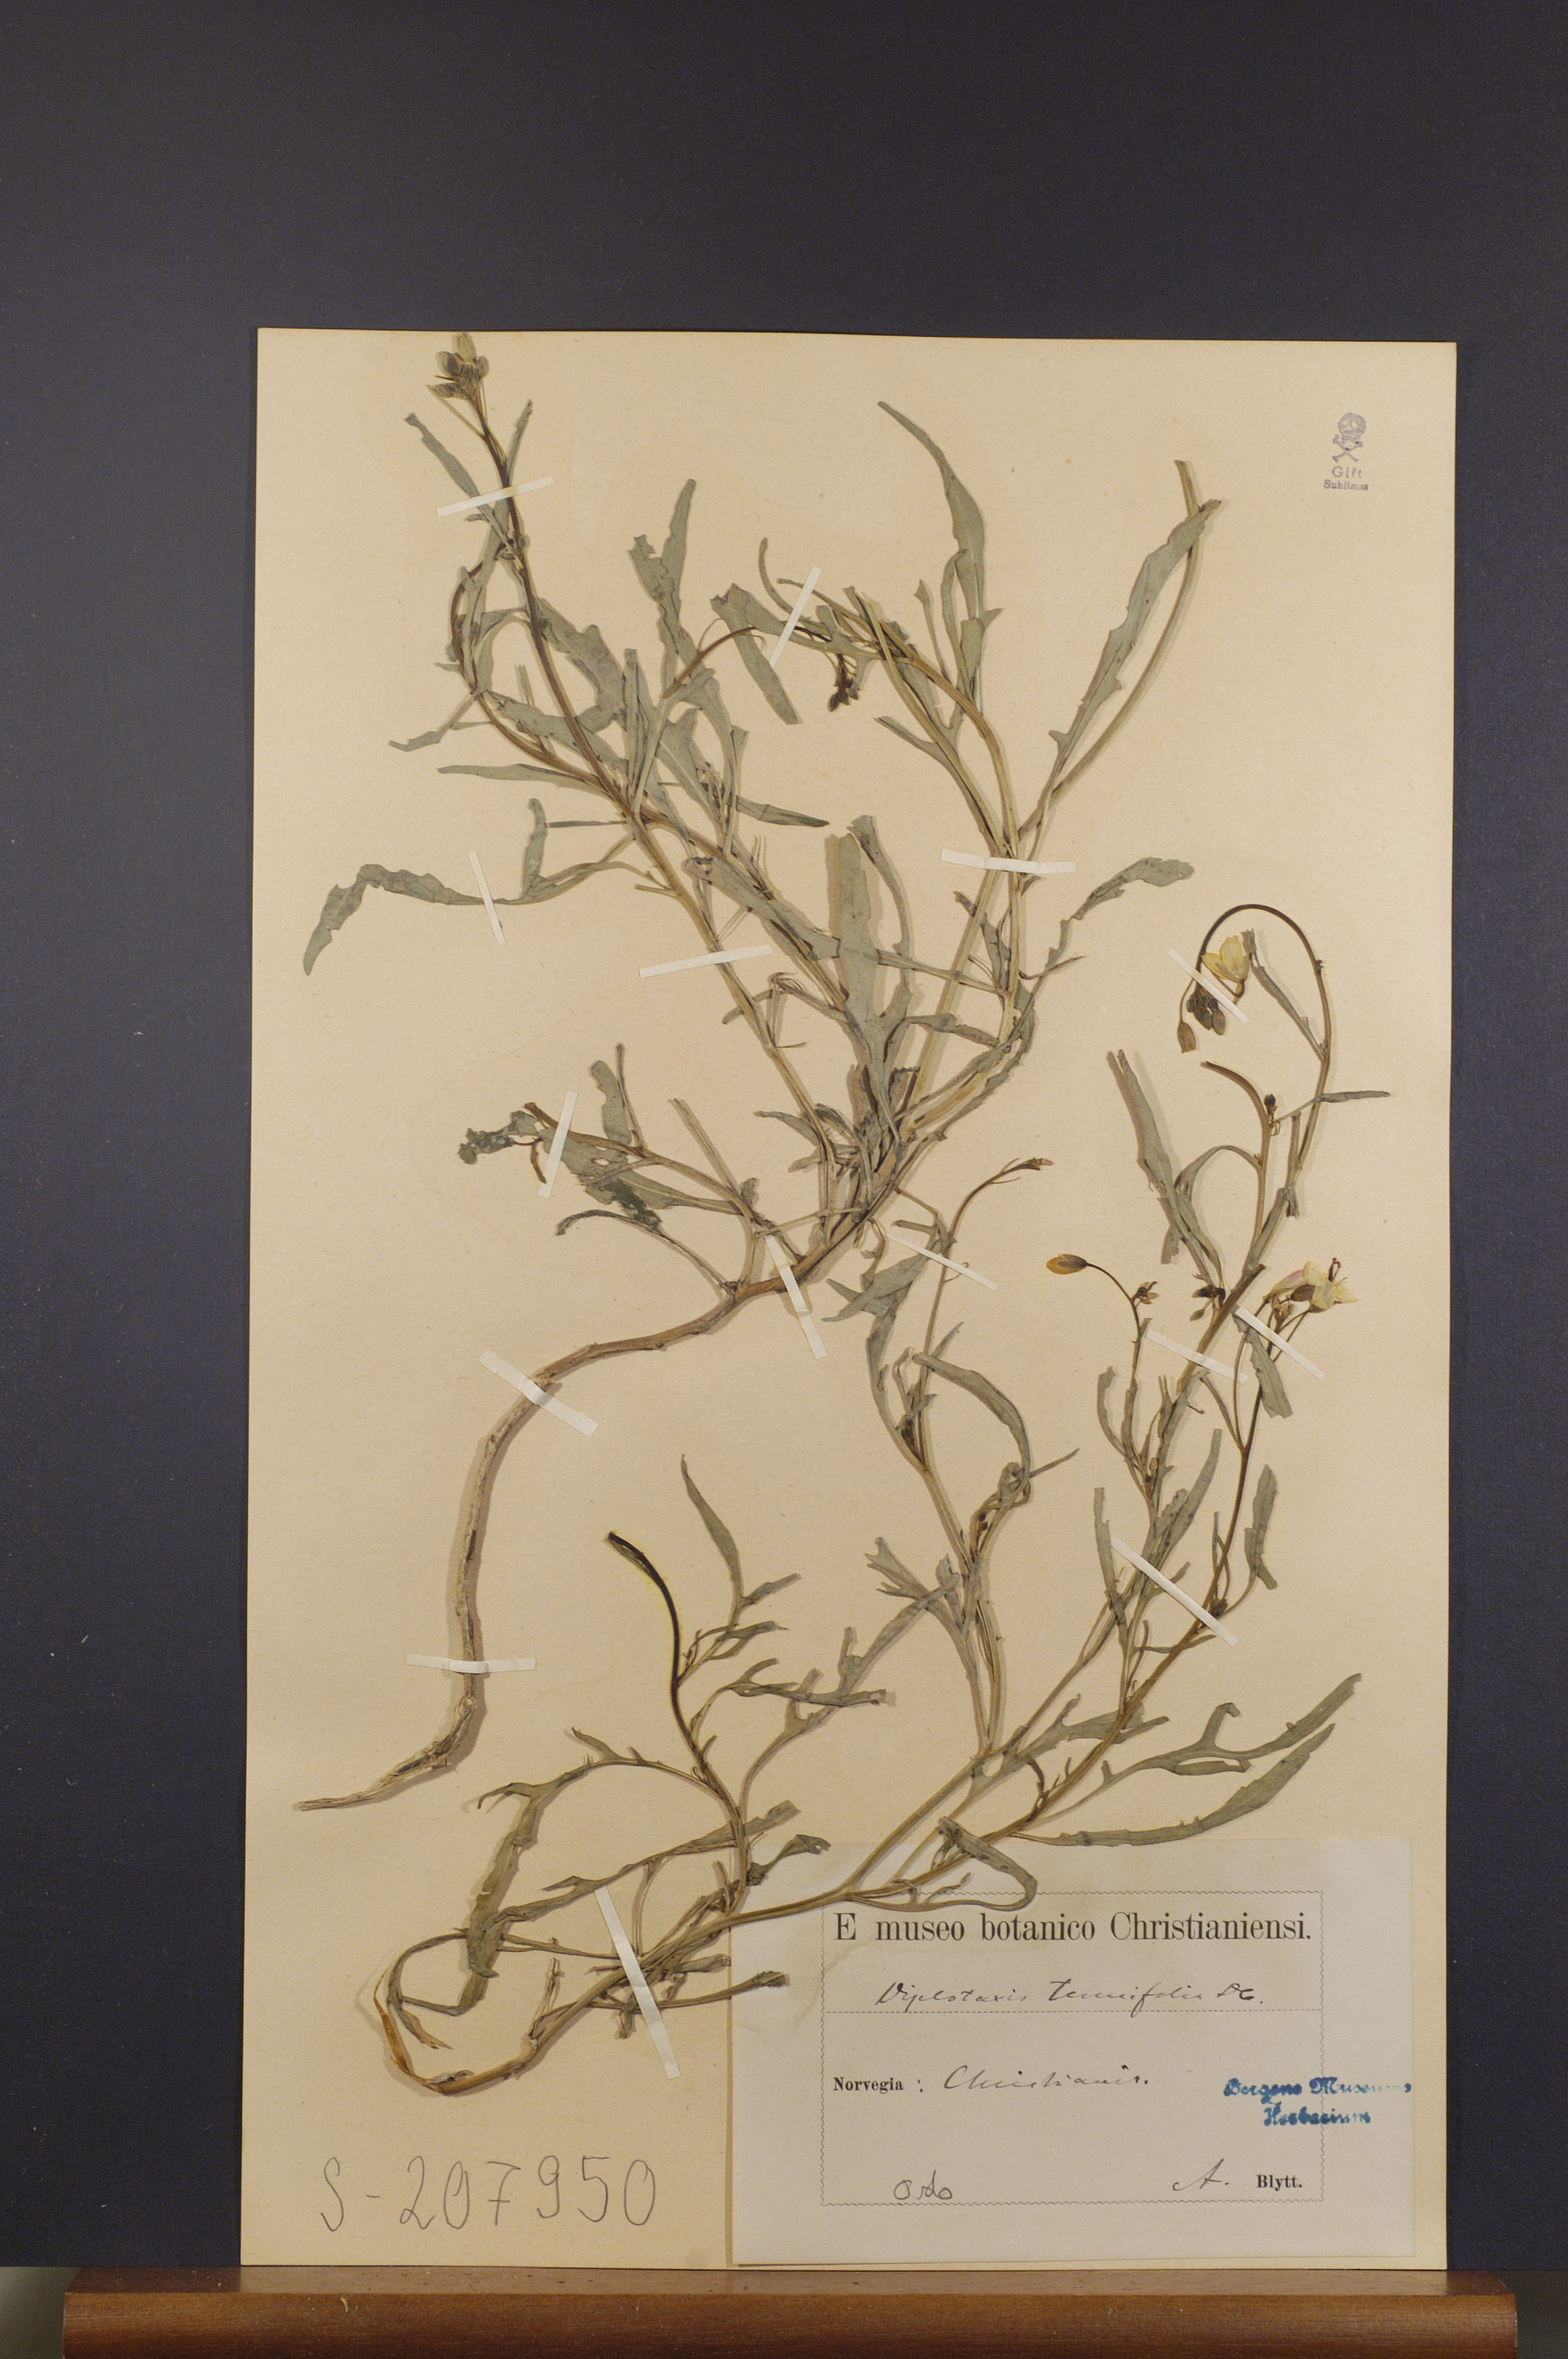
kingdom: Plantae
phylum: Tracheophyta
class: Magnoliopsida
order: Brassicales
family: Brassicaceae
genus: Diplotaxis
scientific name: Diplotaxis tenuifolia
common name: Perennial wall-rocket
